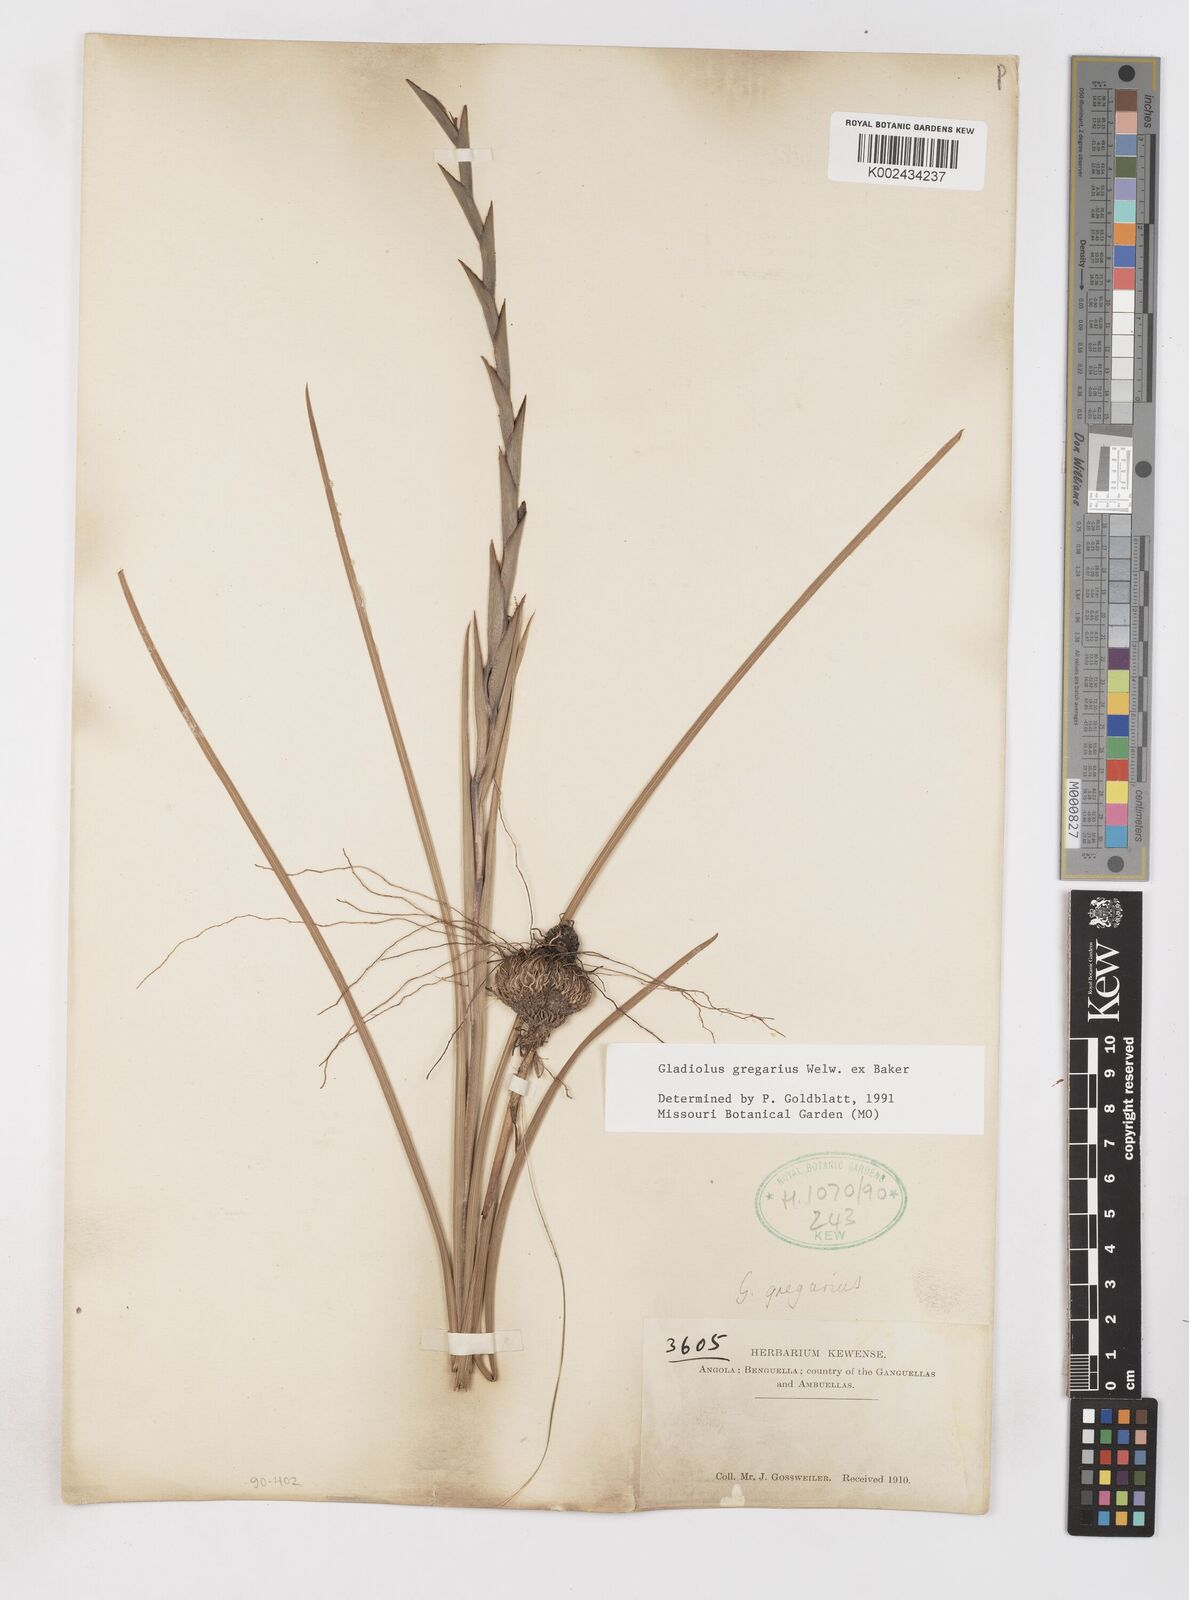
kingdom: Plantae
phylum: Tracheophyta
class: Liliopsida
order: Asparagales
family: Iridaceae
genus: Gladiolus
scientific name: Gladiolus gregarius
